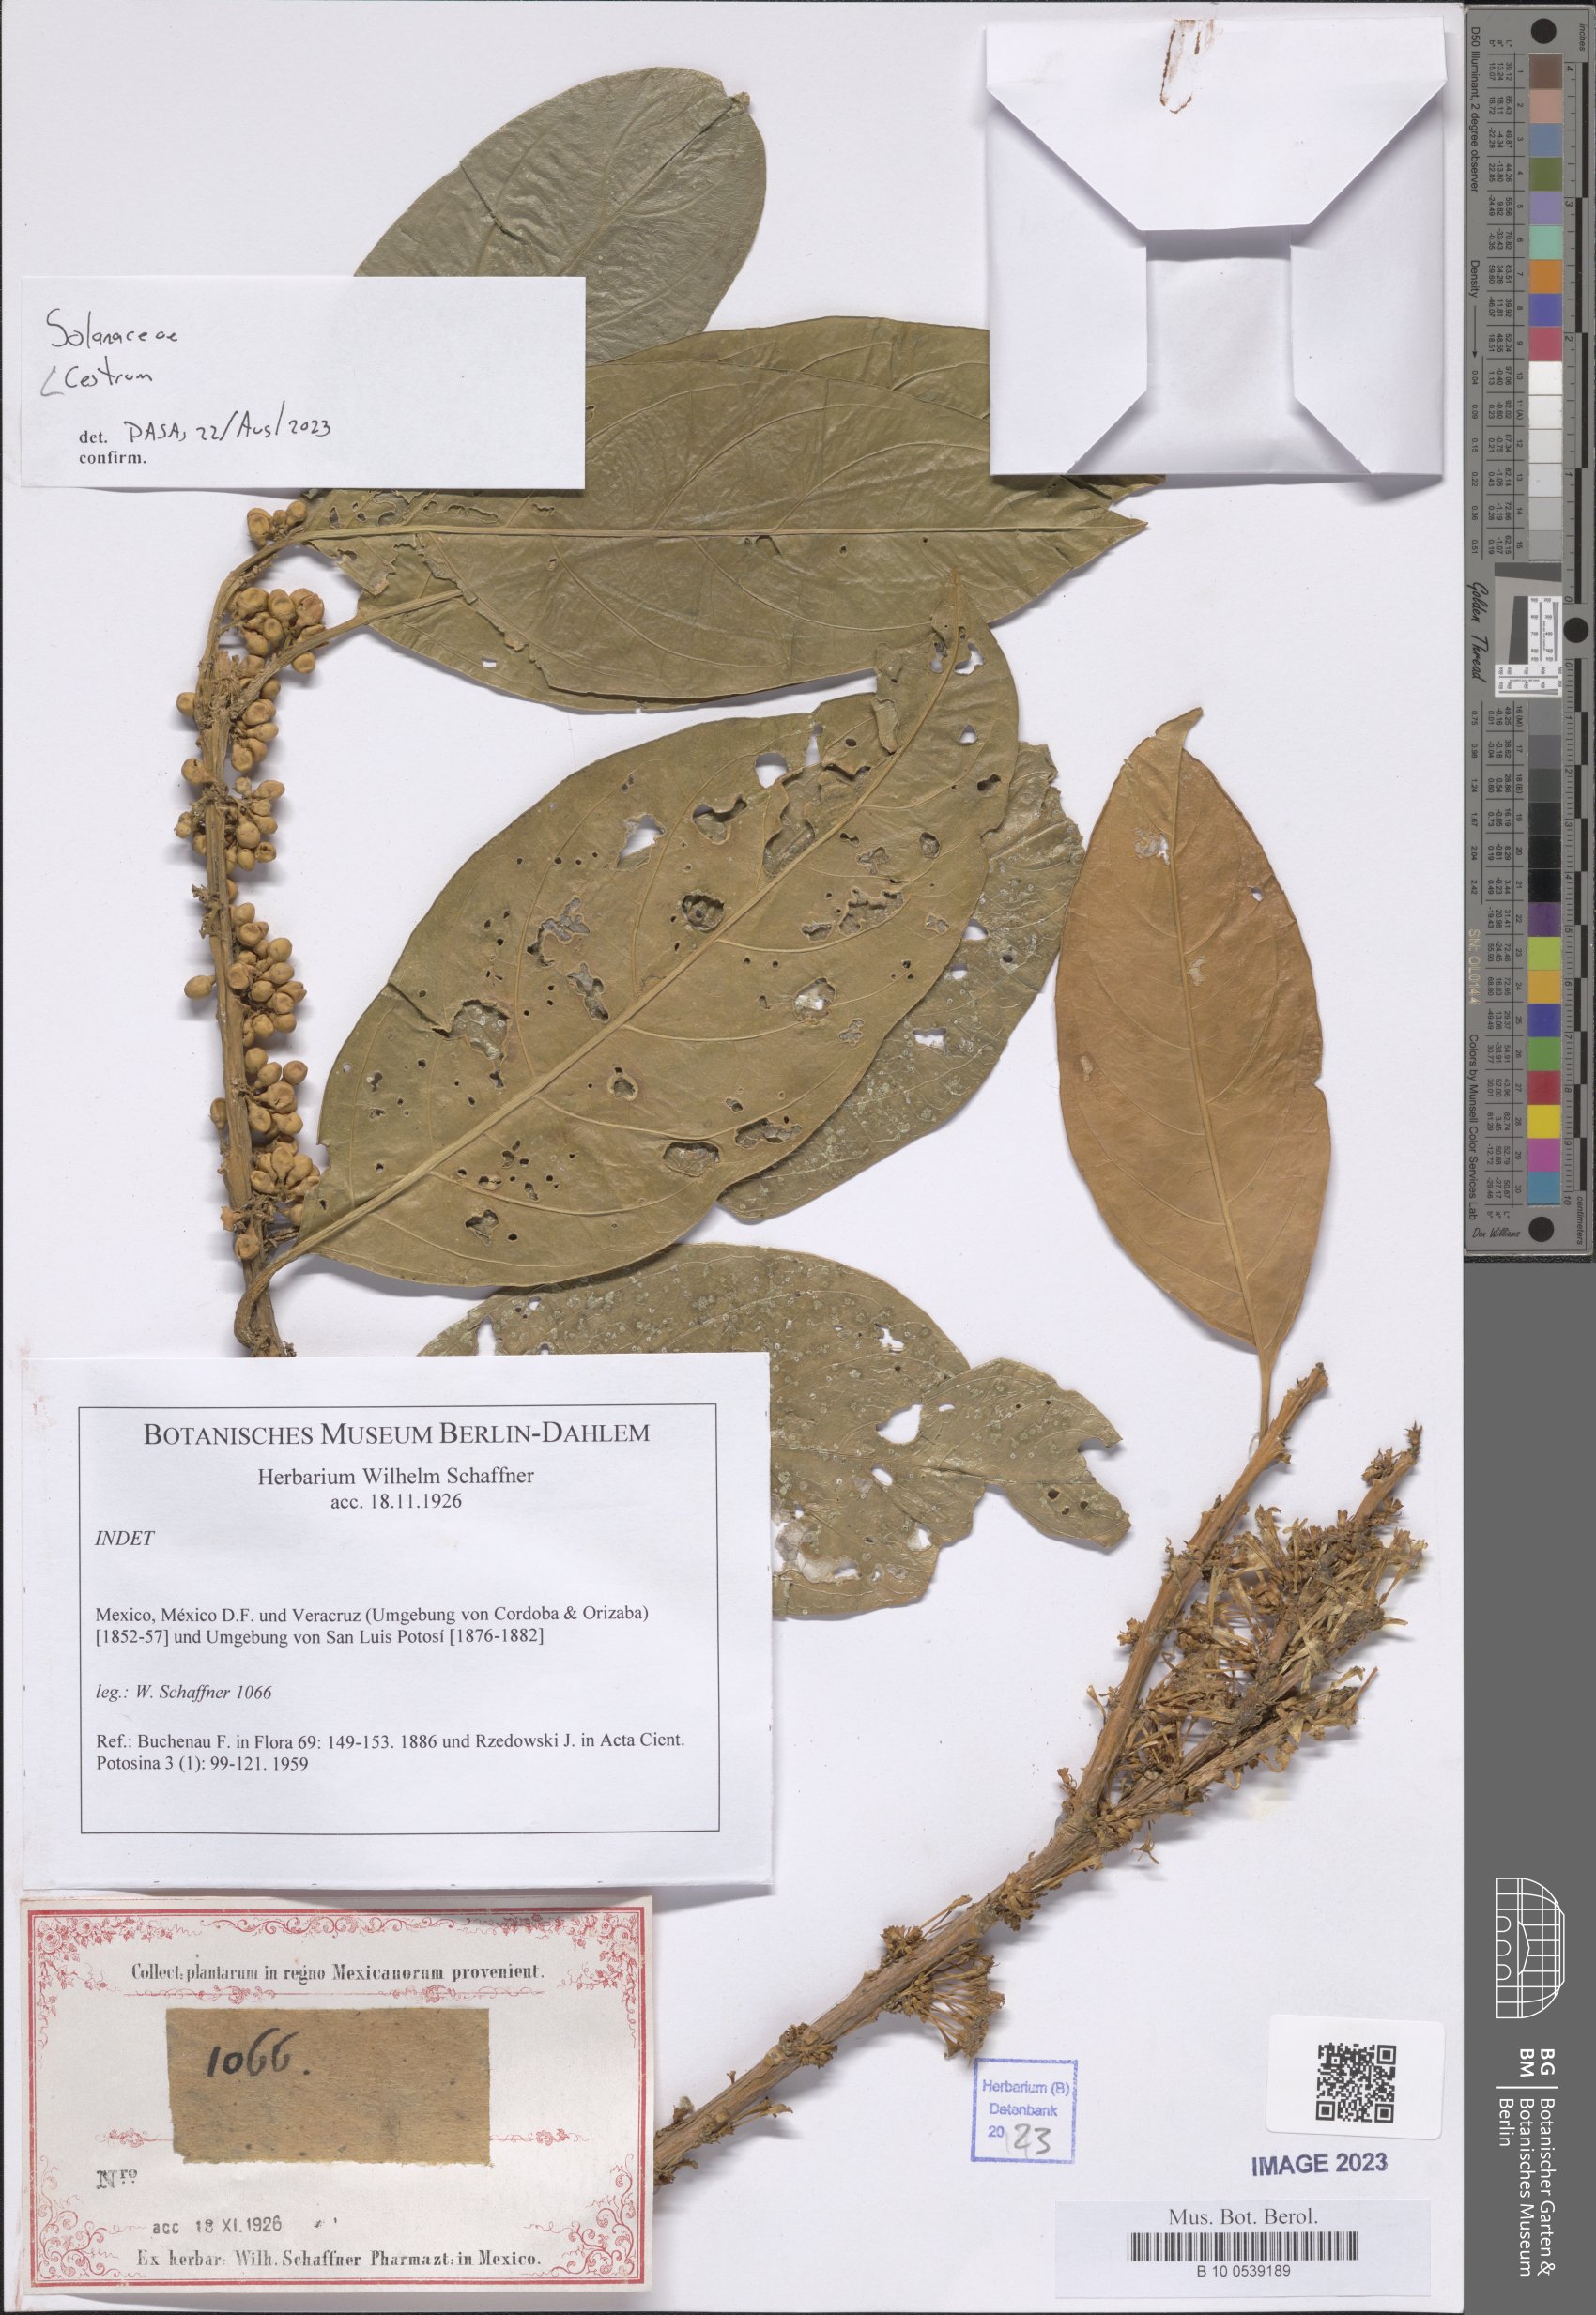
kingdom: Plantae
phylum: Tracheophyta
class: Magnoliopsida
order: Solanales
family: Solanaceae
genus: Cestrum
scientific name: Cestrum
